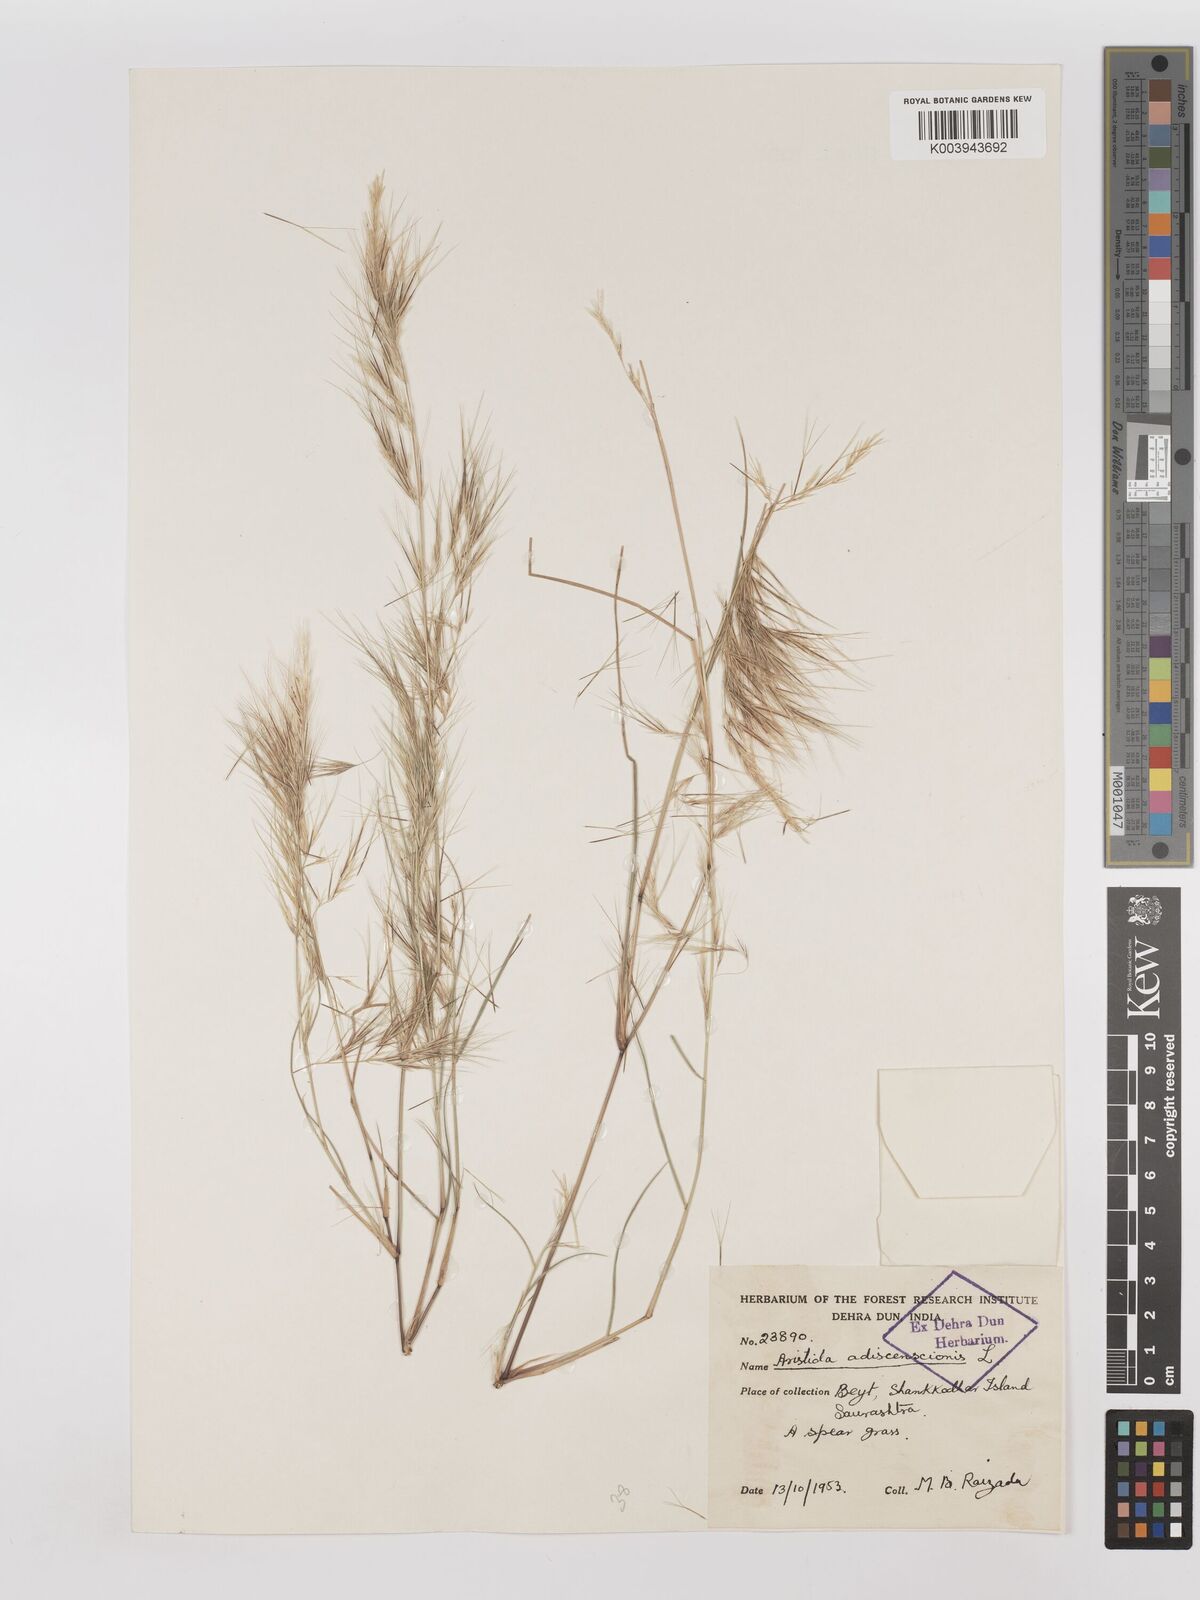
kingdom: Plantae
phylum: Tracheophyta
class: Liliopsida
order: Poales
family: Poaceae
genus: Aristida
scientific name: Aristida adscensionis
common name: Sixweeks threeawn
